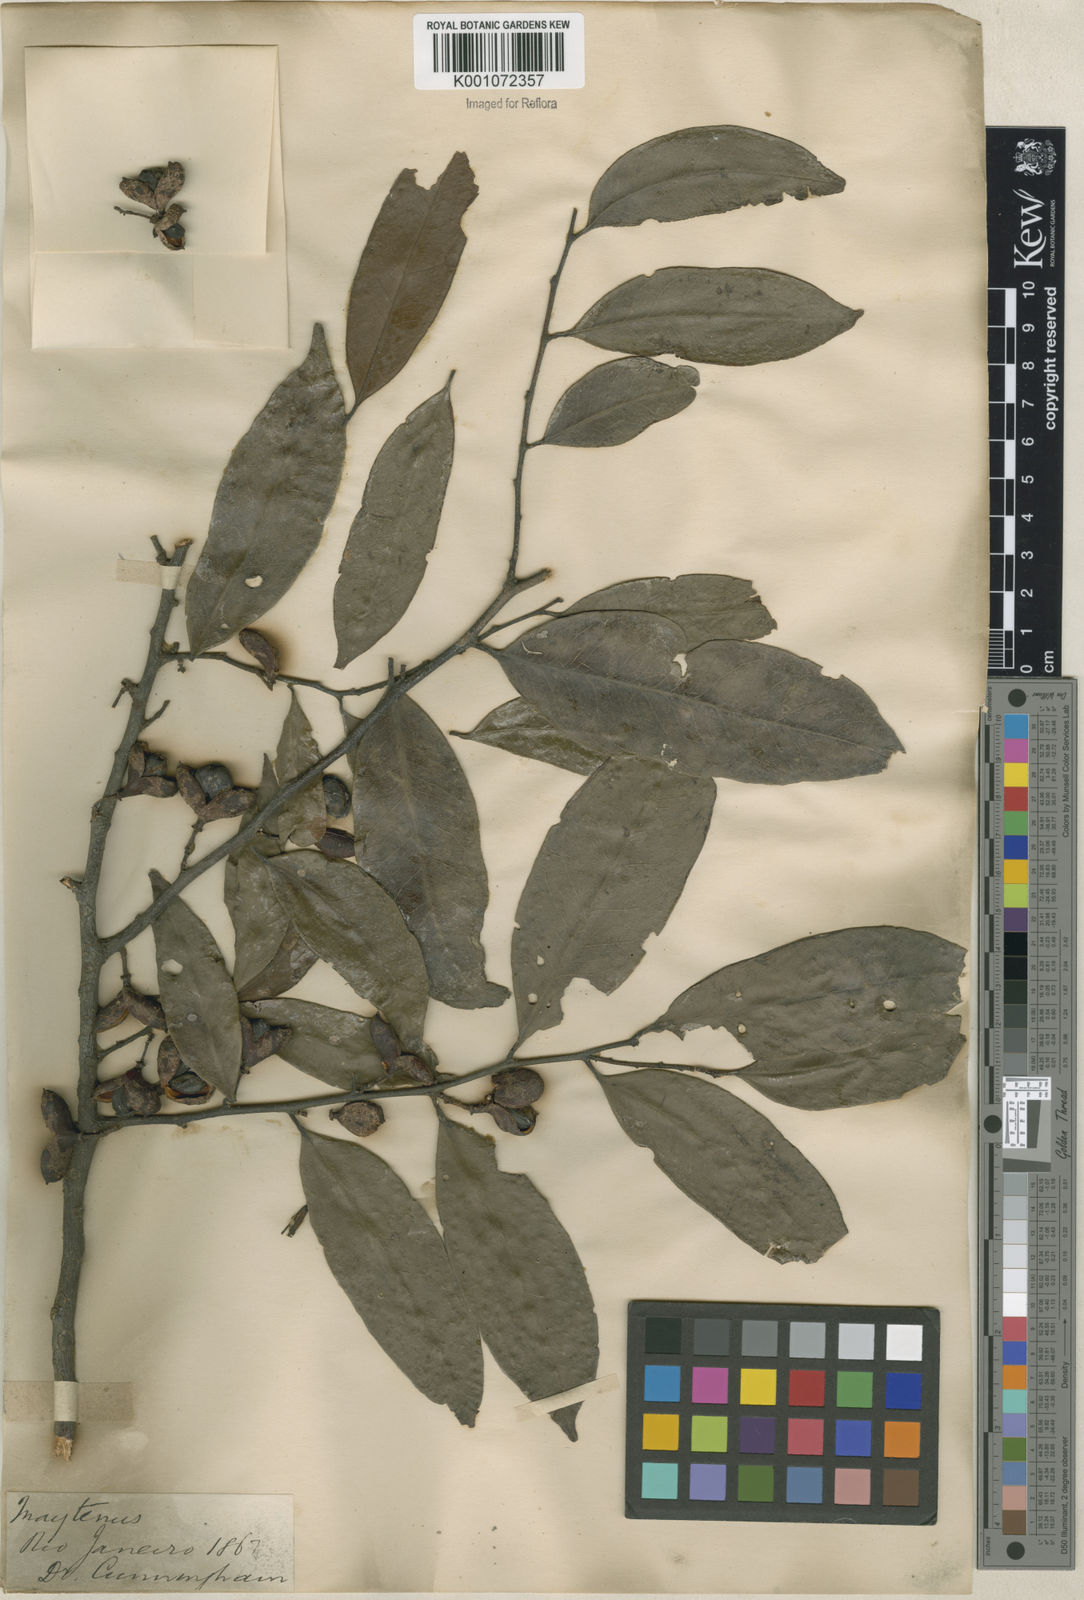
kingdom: Plantae
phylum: Tracheophyta
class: Magnoliopsida
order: Celastrales
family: Celastraceae
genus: Maytenus
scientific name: Maytenus
